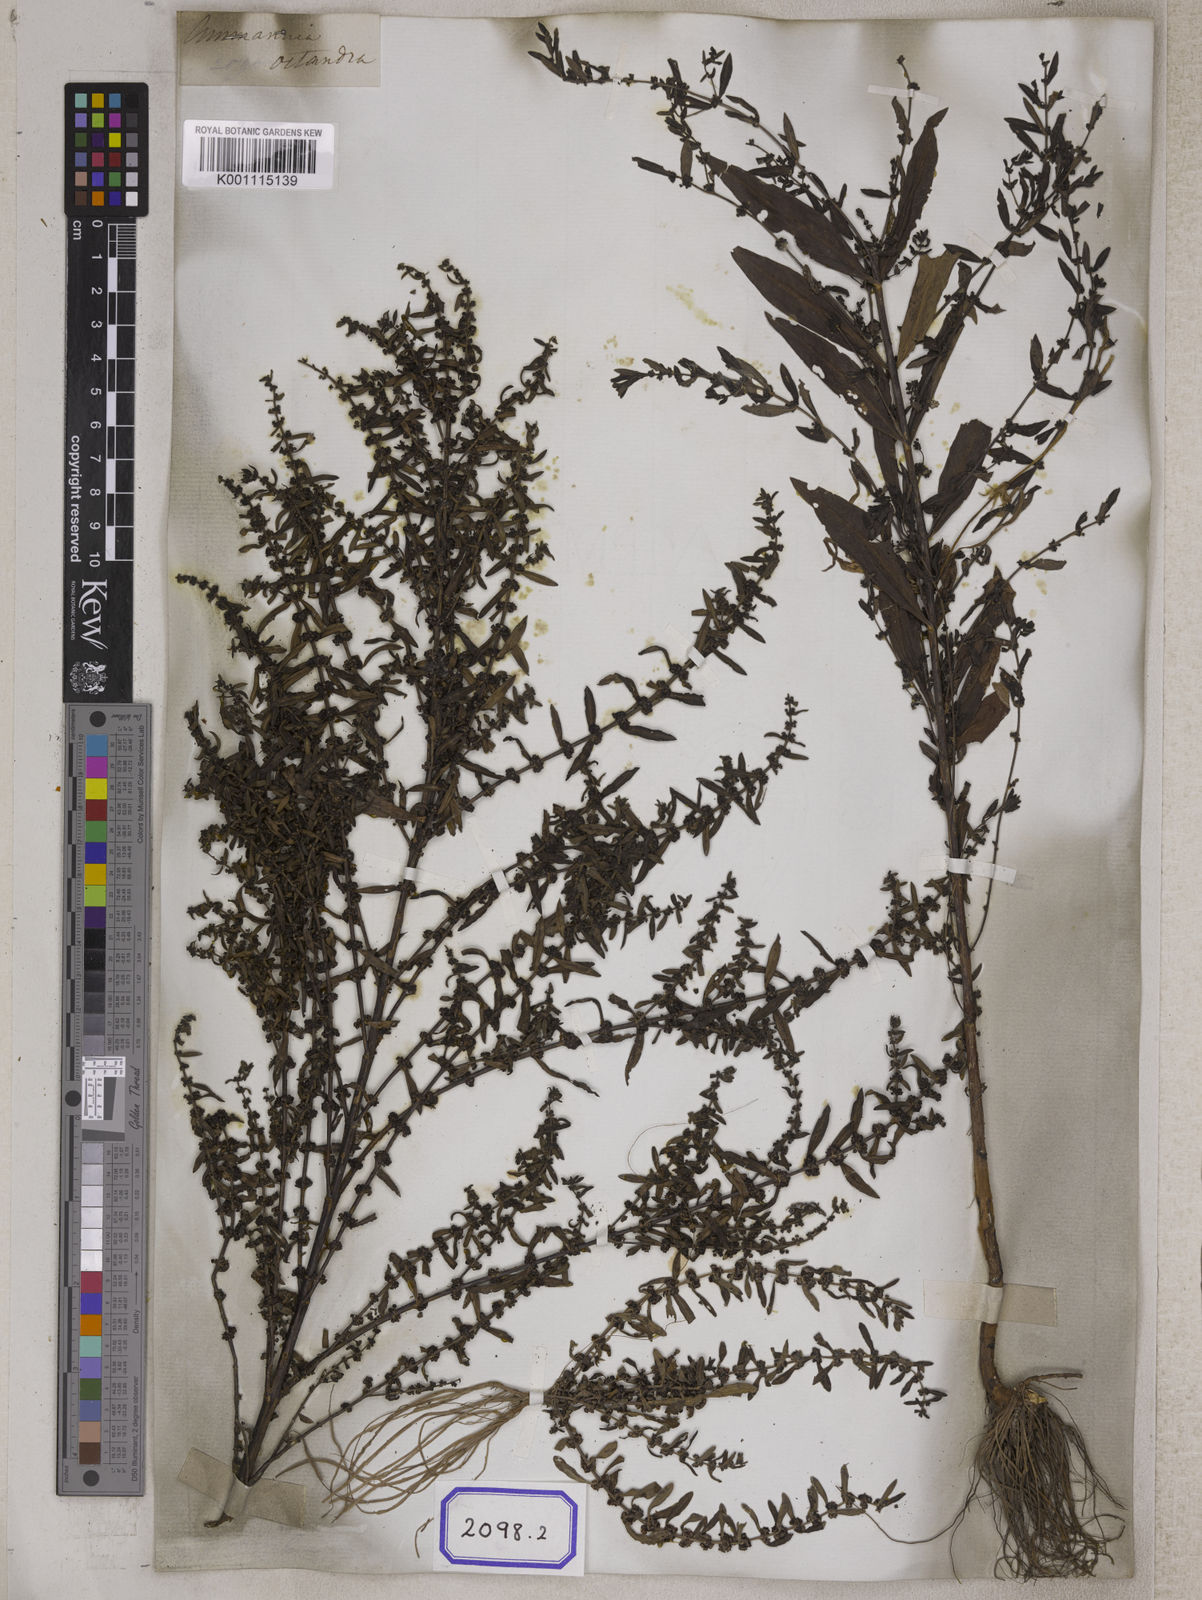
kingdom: Plantae
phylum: Tracheophyta
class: Magnoliopsida
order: Myrtales
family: Lythraceae
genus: Ammannia
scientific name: Ammannia baccifera
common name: Blistering ammania
